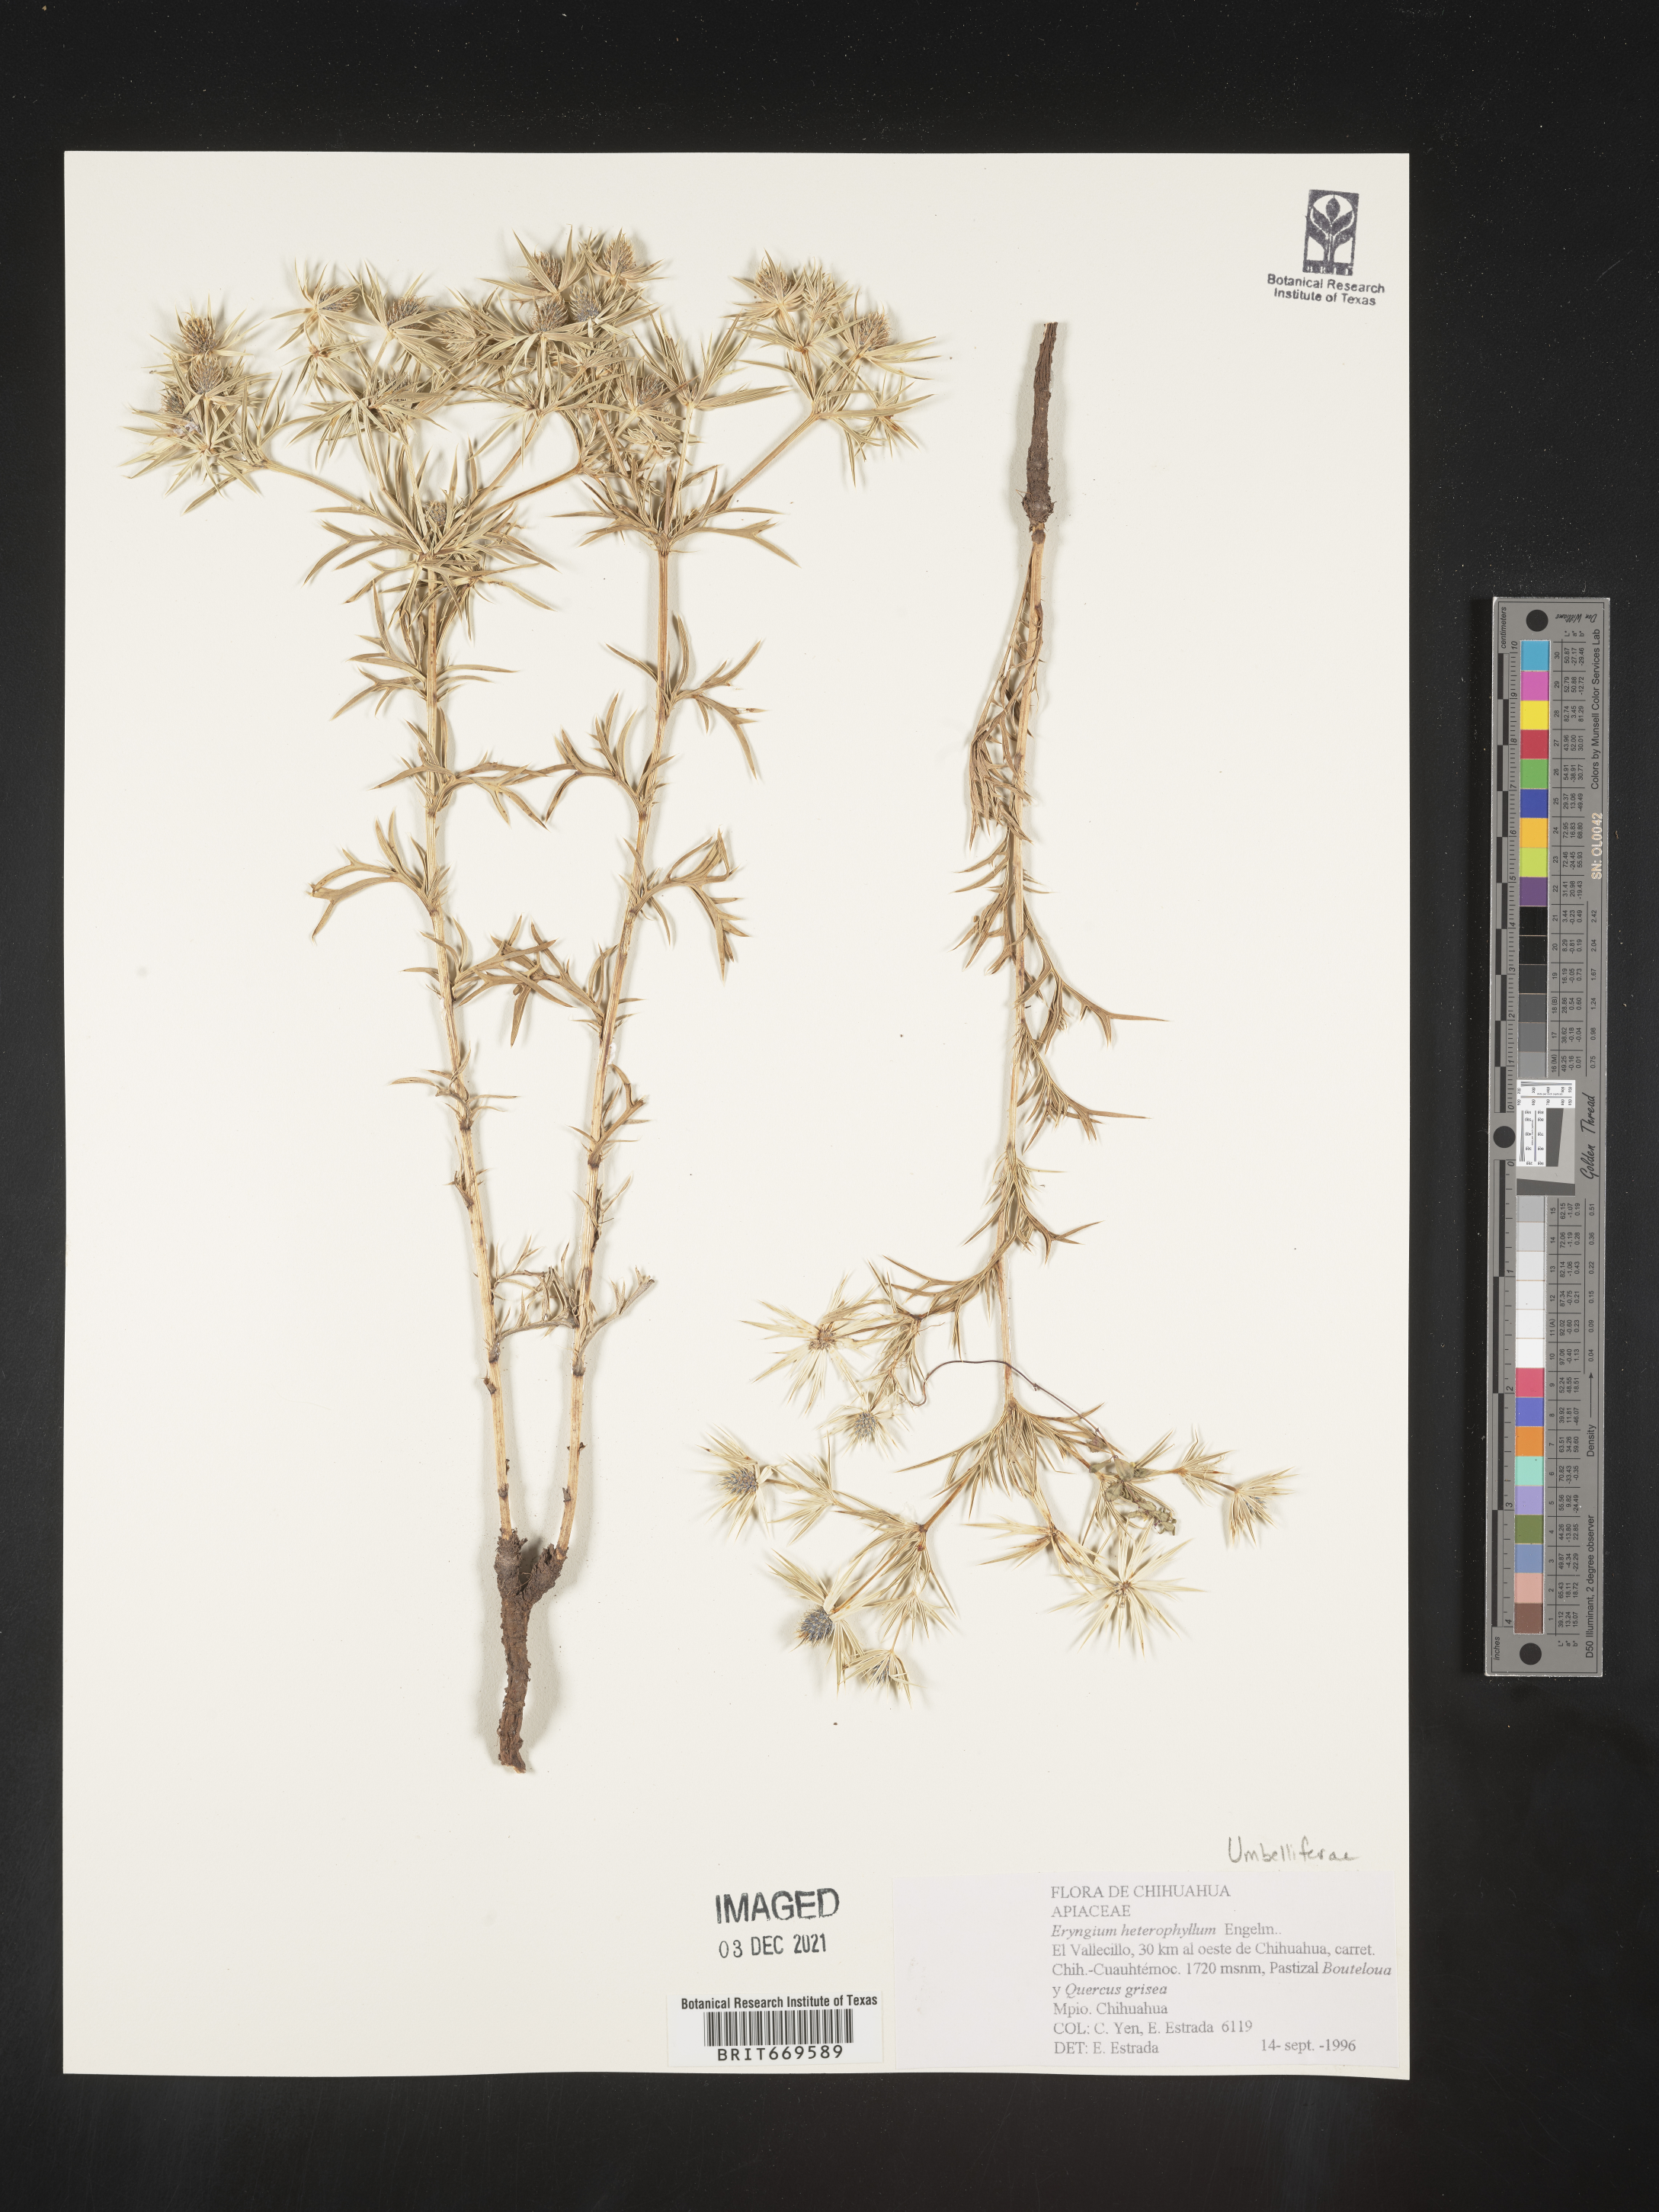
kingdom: Plantae
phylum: Tracheophyta
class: Magnoliopsida
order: Apiales
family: Apiaceae
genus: Eryngium
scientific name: Eryngium
